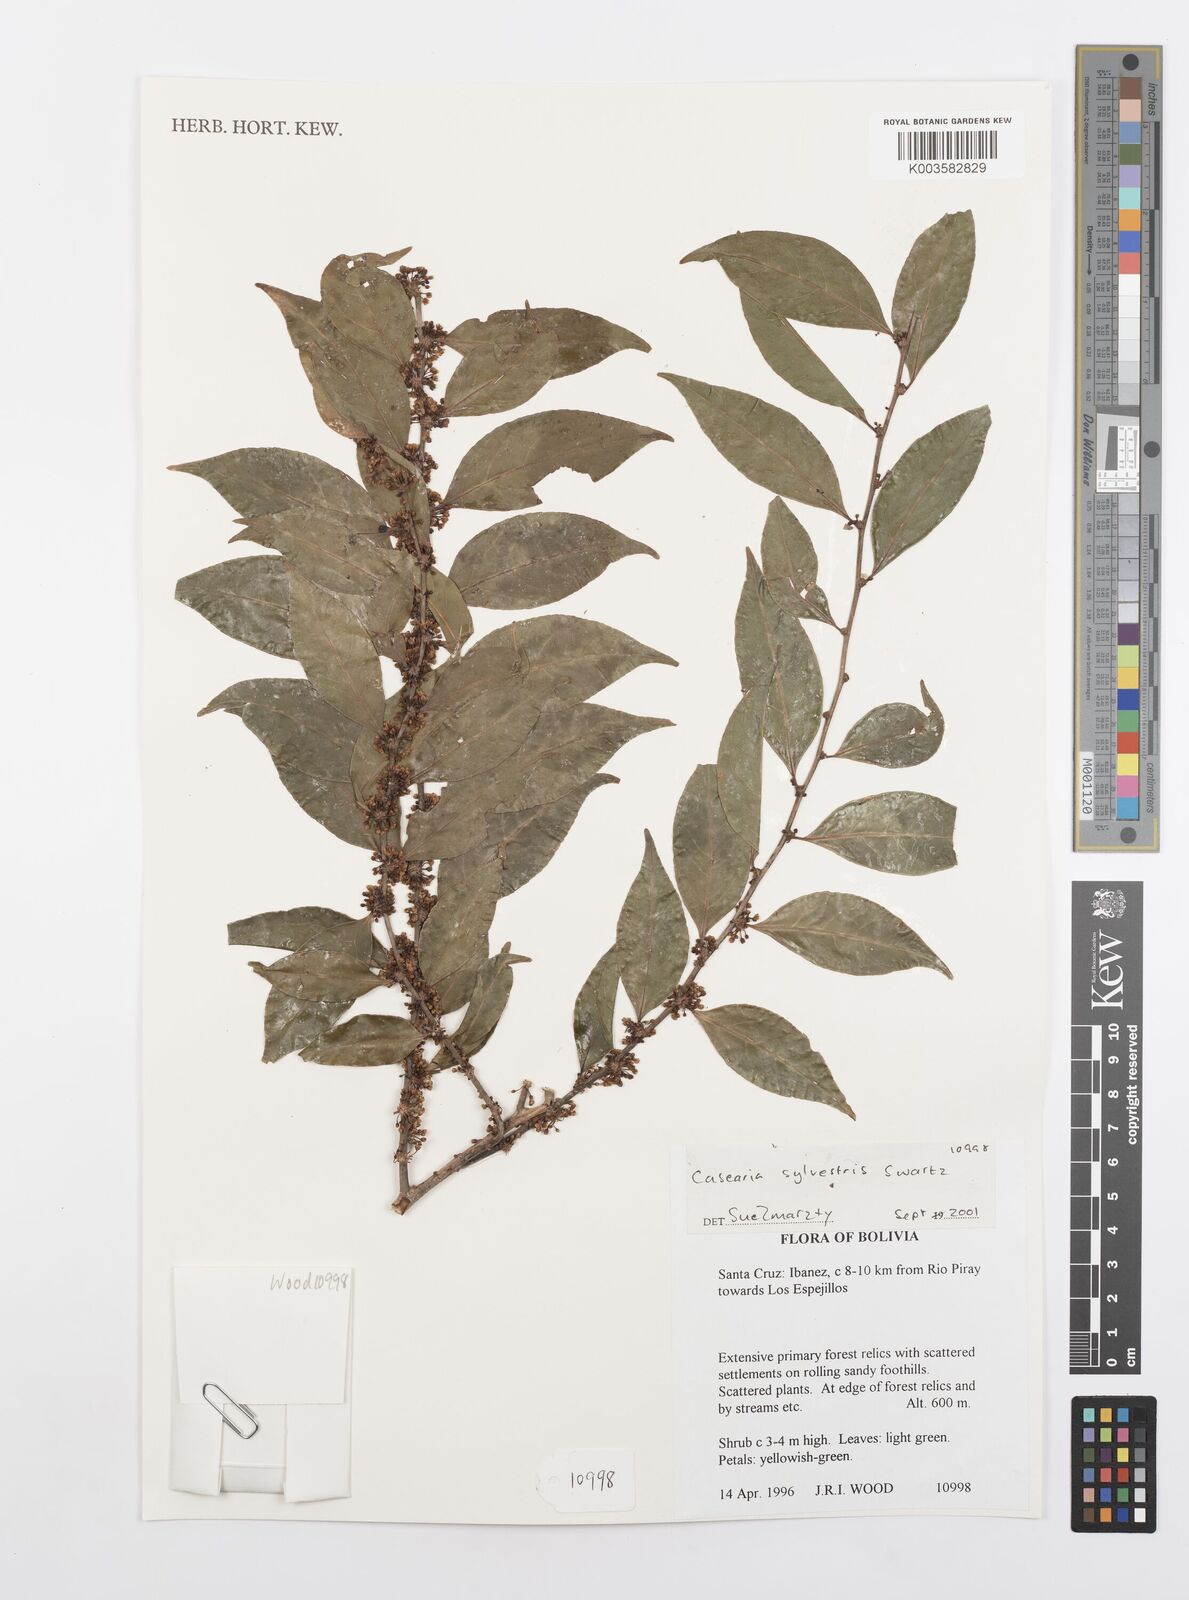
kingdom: Plantae
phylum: Tracheophyta
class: Magnoliopsida
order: Malpighiales
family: Salicaceae
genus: Casearia
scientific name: Casearia sylvestris
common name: Wild sage
